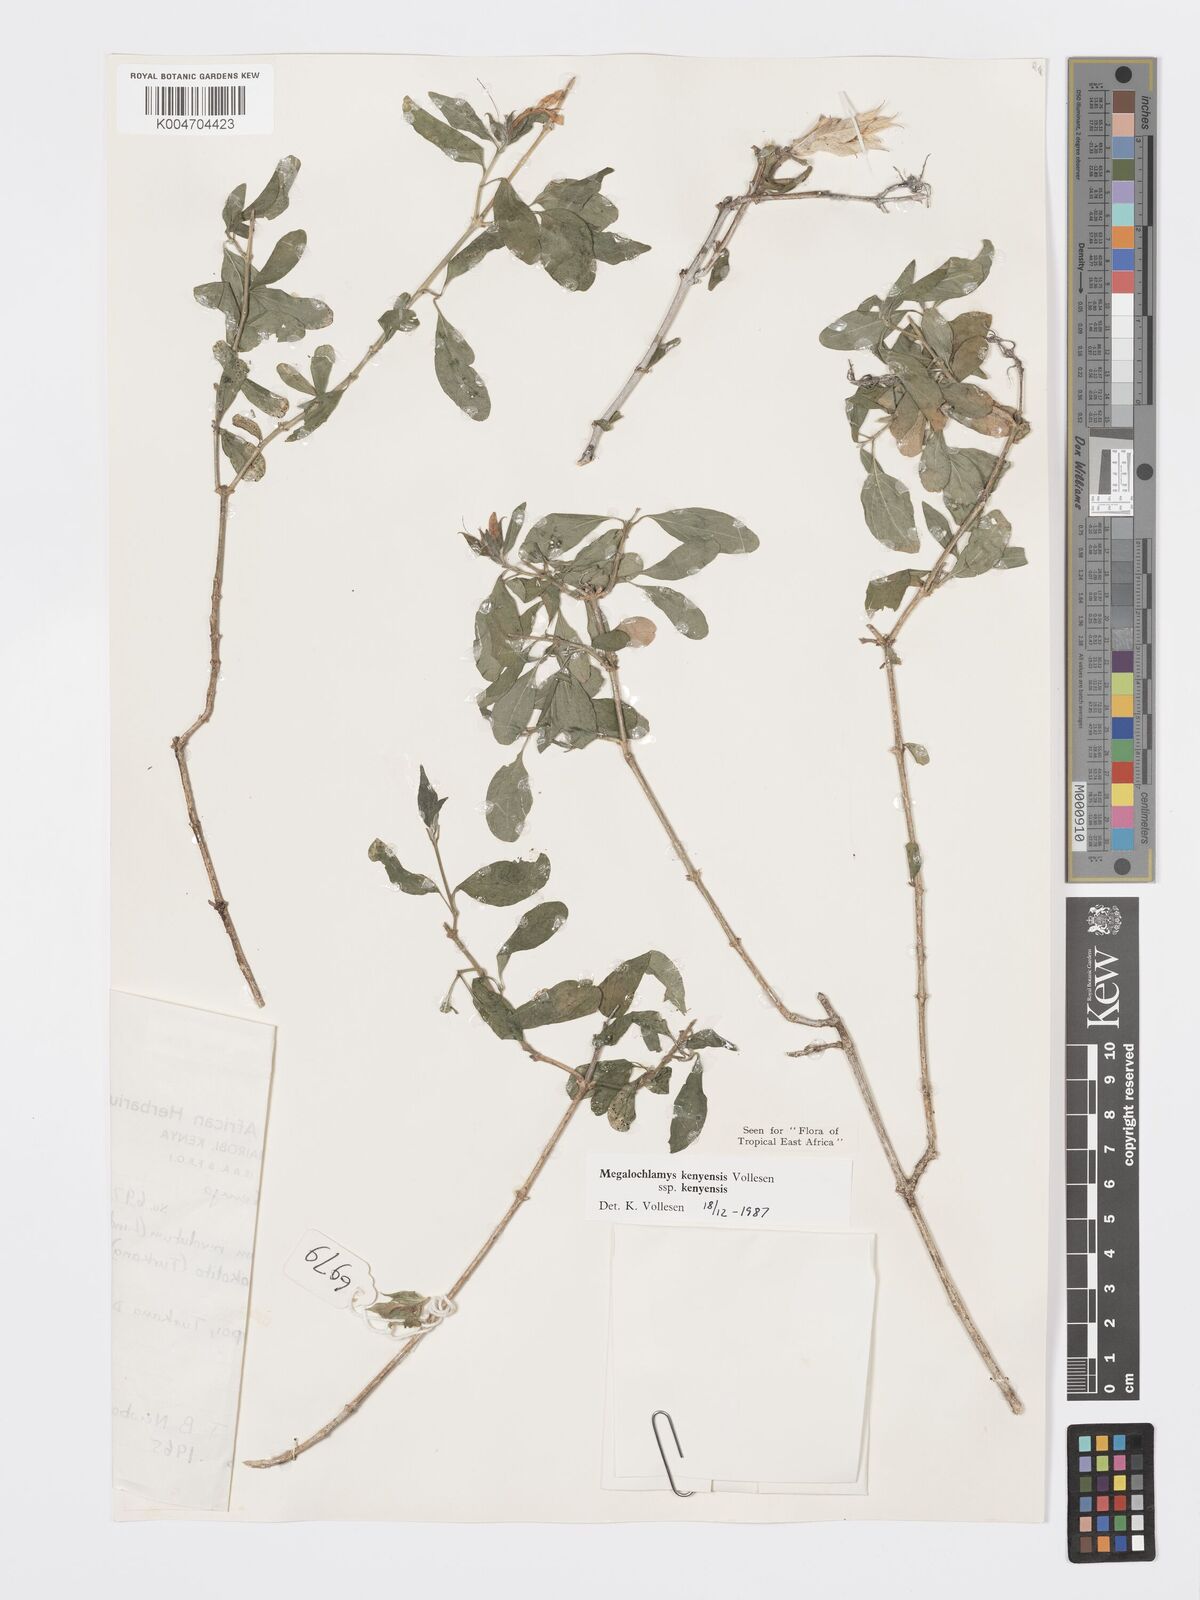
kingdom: Plantae
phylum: Tracheophyta
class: Magnoliopsida
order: Lamiales
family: Acanthaceae
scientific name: Acanthaceae
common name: Acanthaceae
